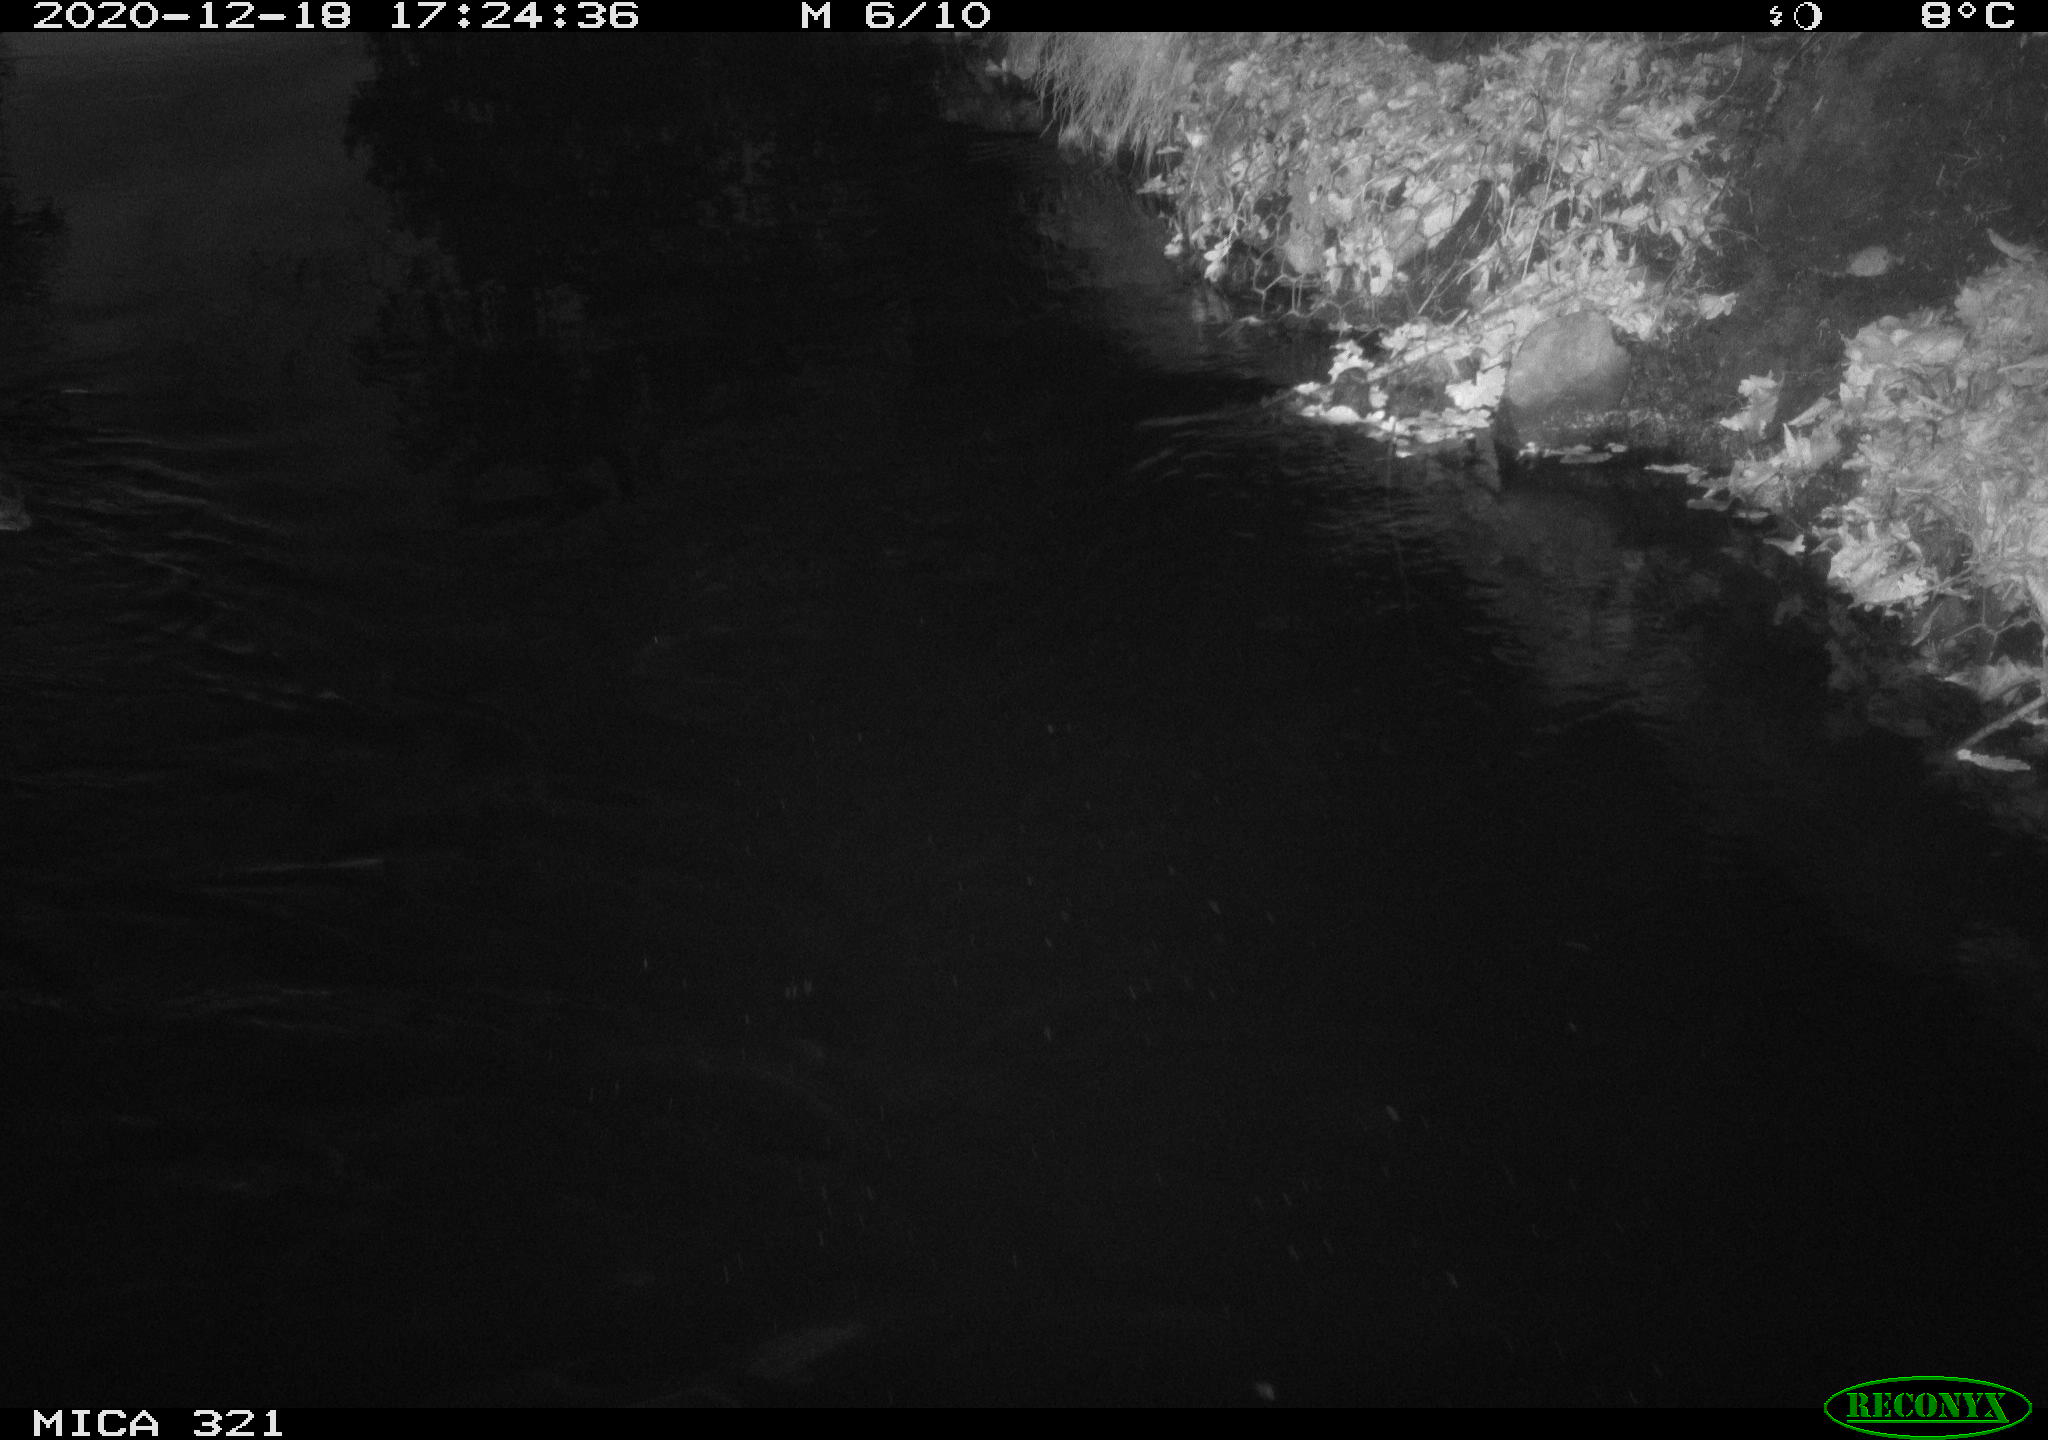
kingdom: Animalia
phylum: Chordata
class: Aves
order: Anseriformes
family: Anatidae
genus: Anas
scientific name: Anas platyrhynchos
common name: Mallard
